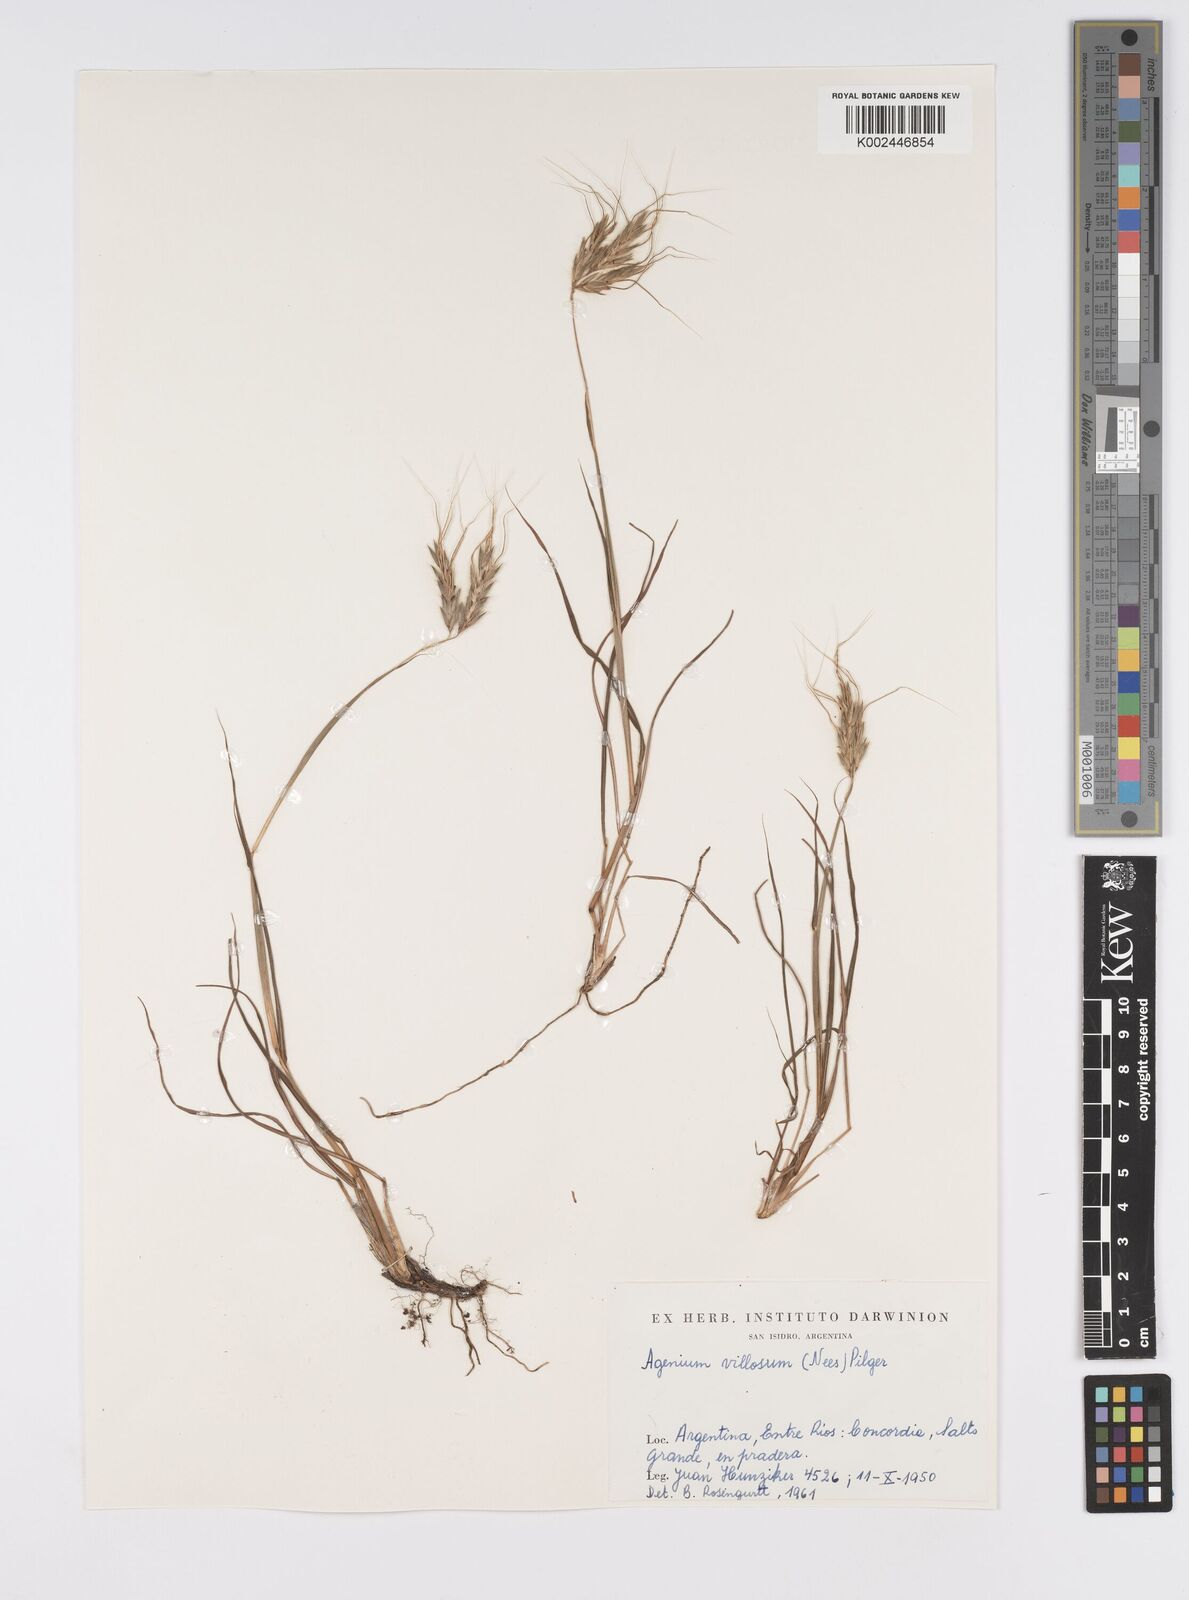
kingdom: Plantae
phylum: Tracheophyta
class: Liliopsida
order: Poales
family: Poaceae
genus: Agenium
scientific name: Agenium villosum
